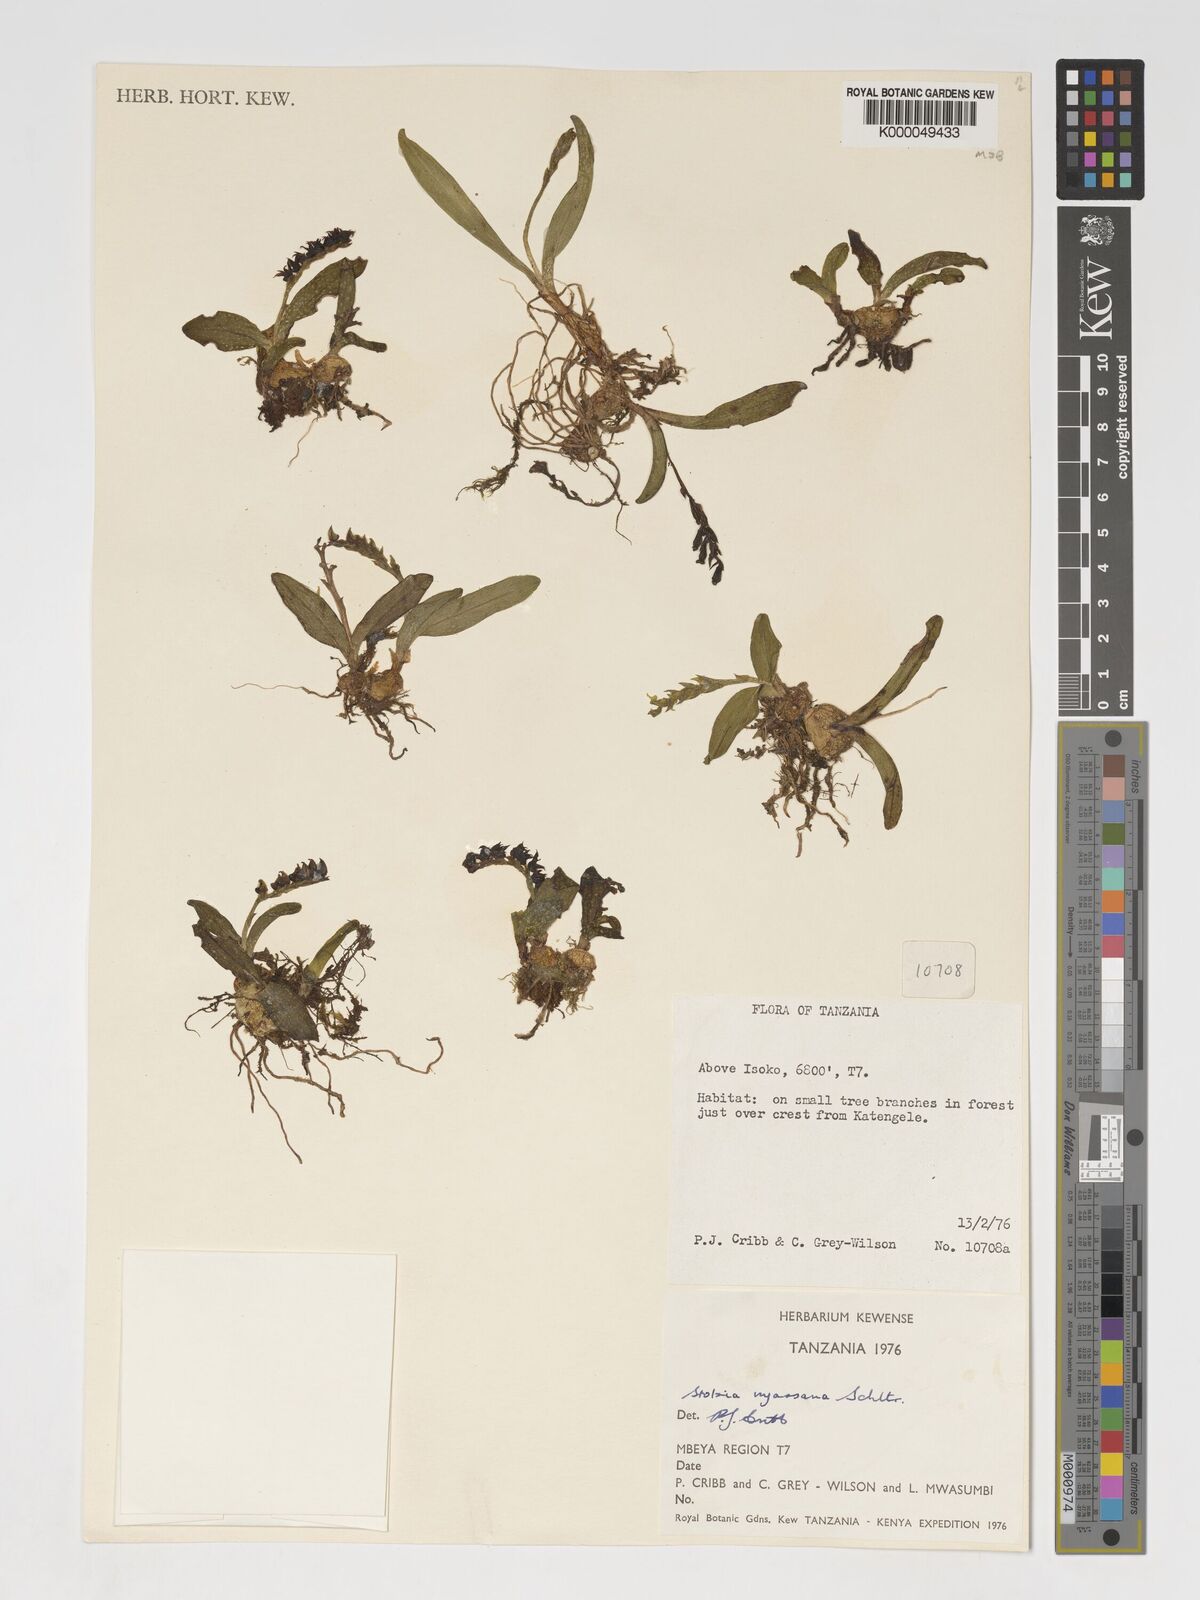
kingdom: Plantae
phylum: Tracheophyta
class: Liliopsida
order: Asparagales
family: Orchidaceae
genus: Porpax
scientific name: Porpax nyassana
